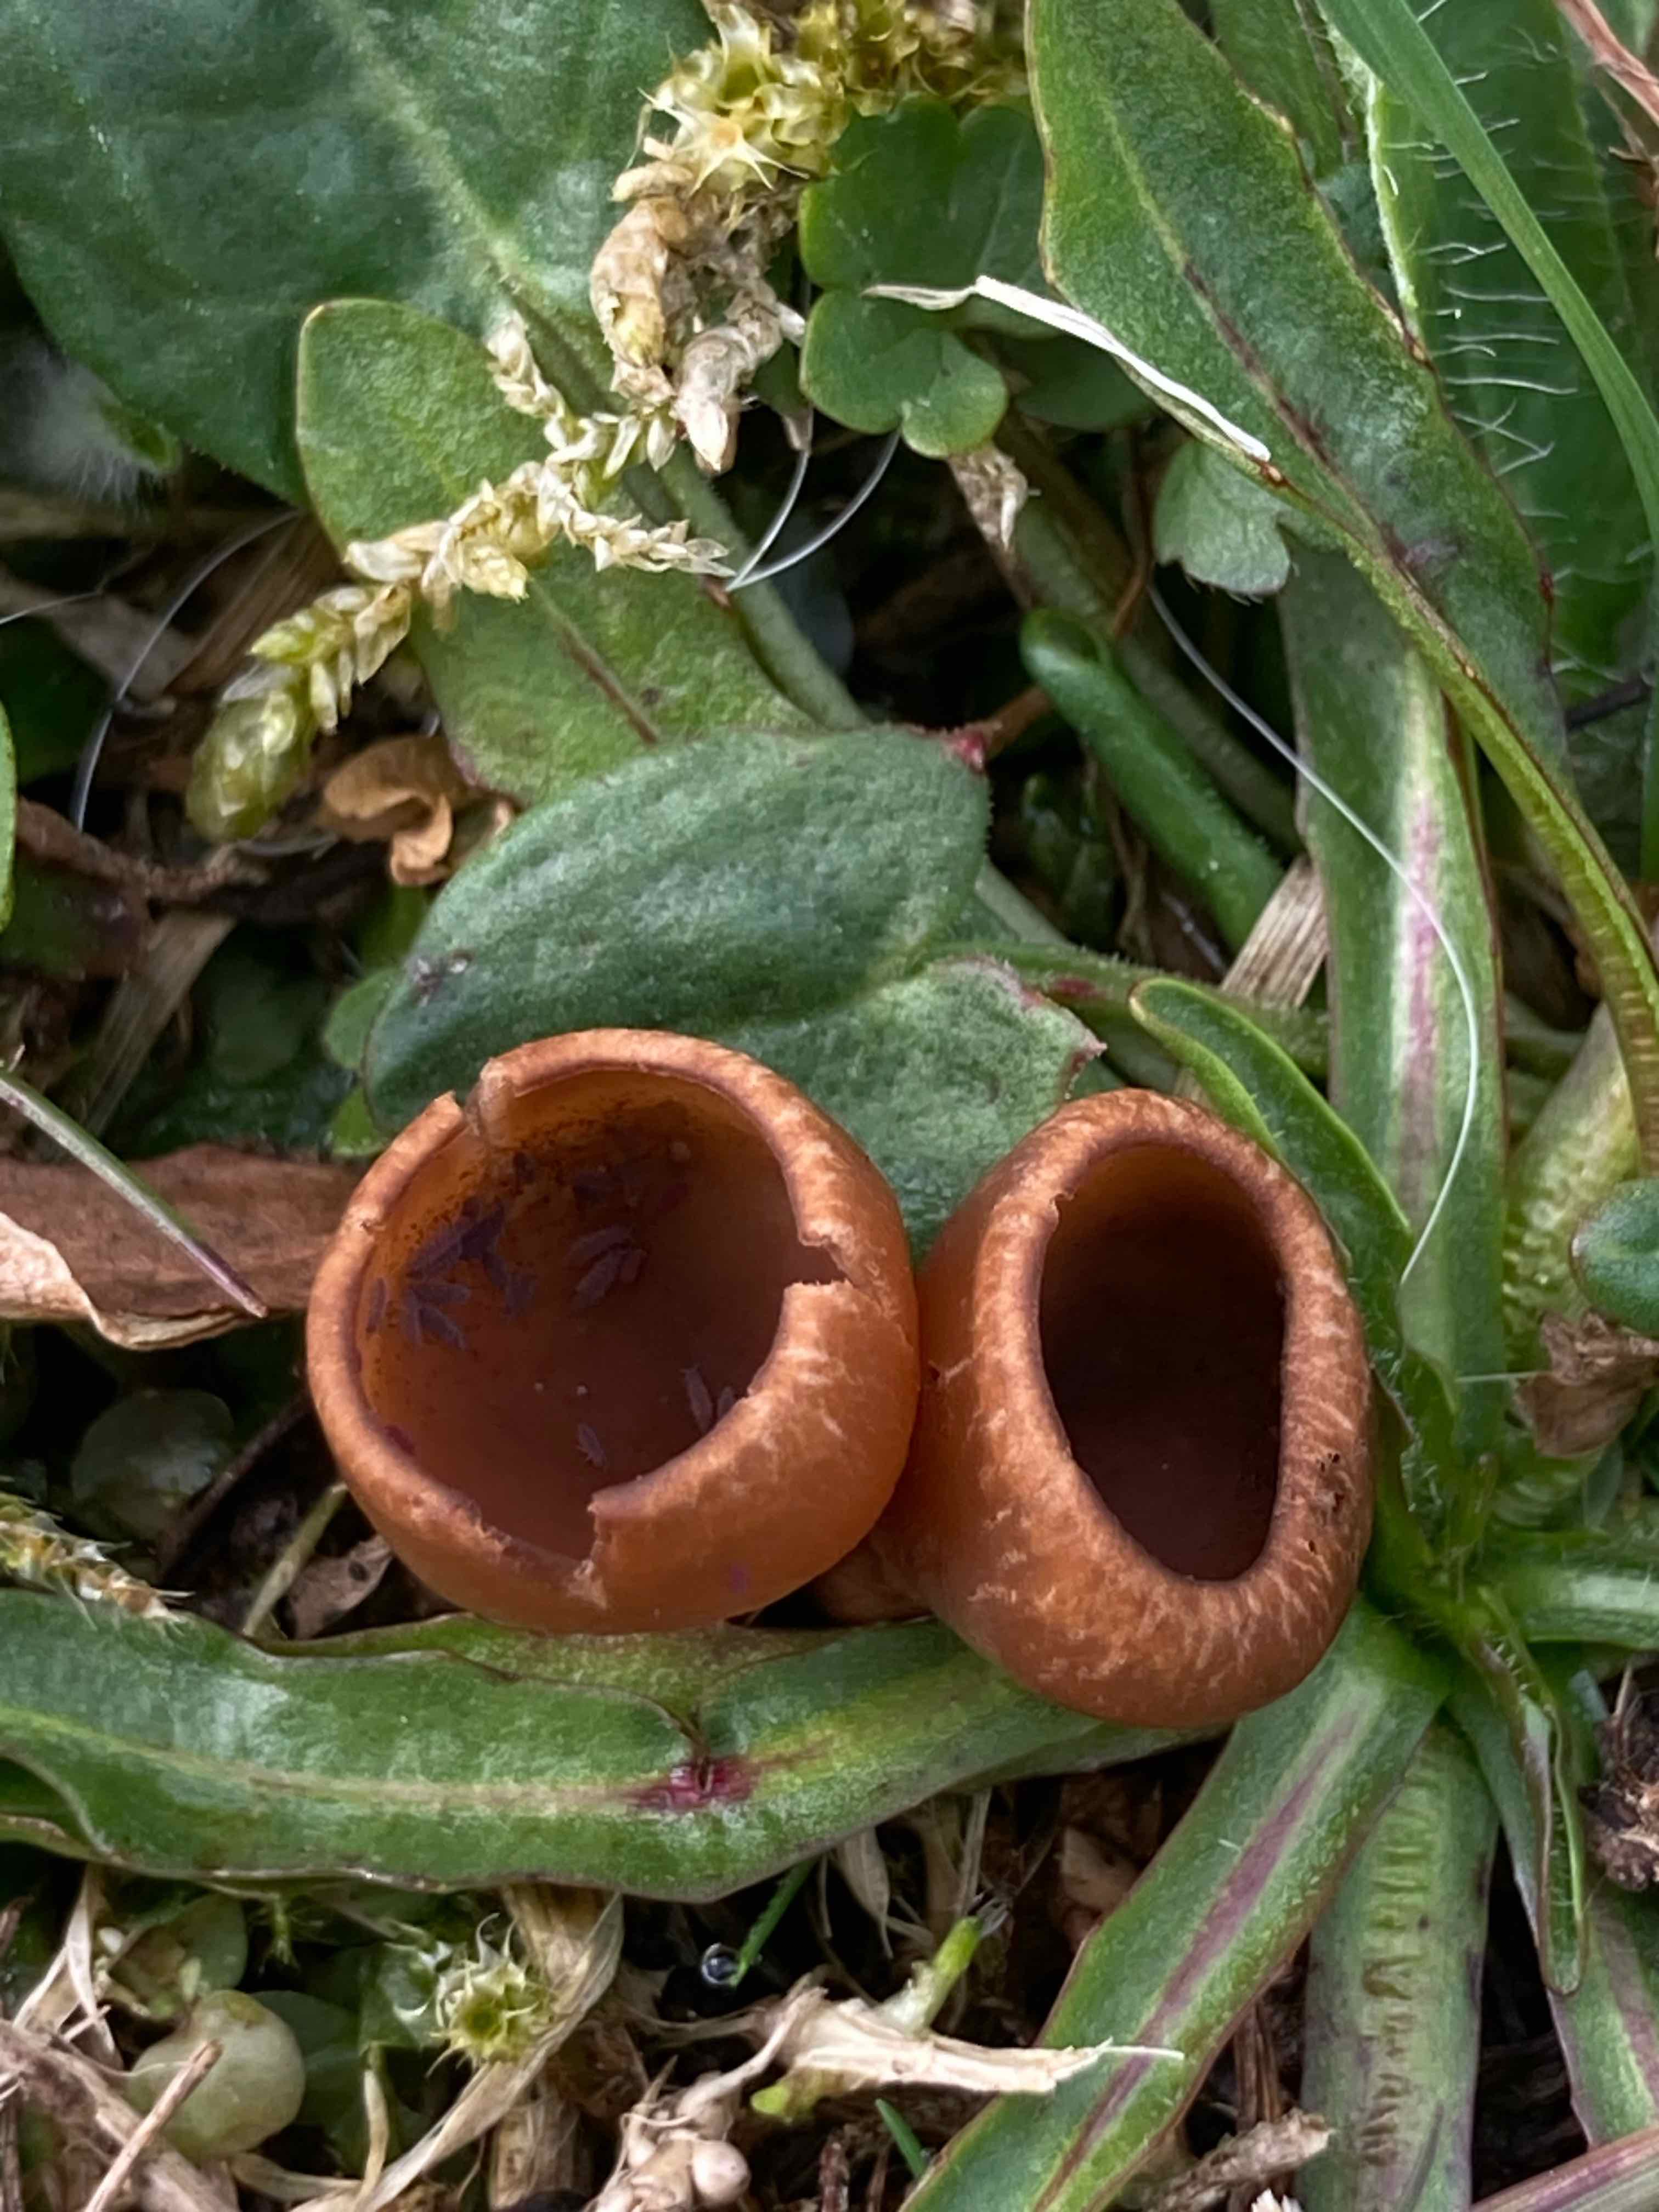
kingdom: Fungi
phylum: Ascomycota
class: Leotiomycetes
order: Helotiales
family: Sclerotiniaceae
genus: Dumontinia
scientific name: Dumontinia tuberosa
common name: anemone-knoldskive
